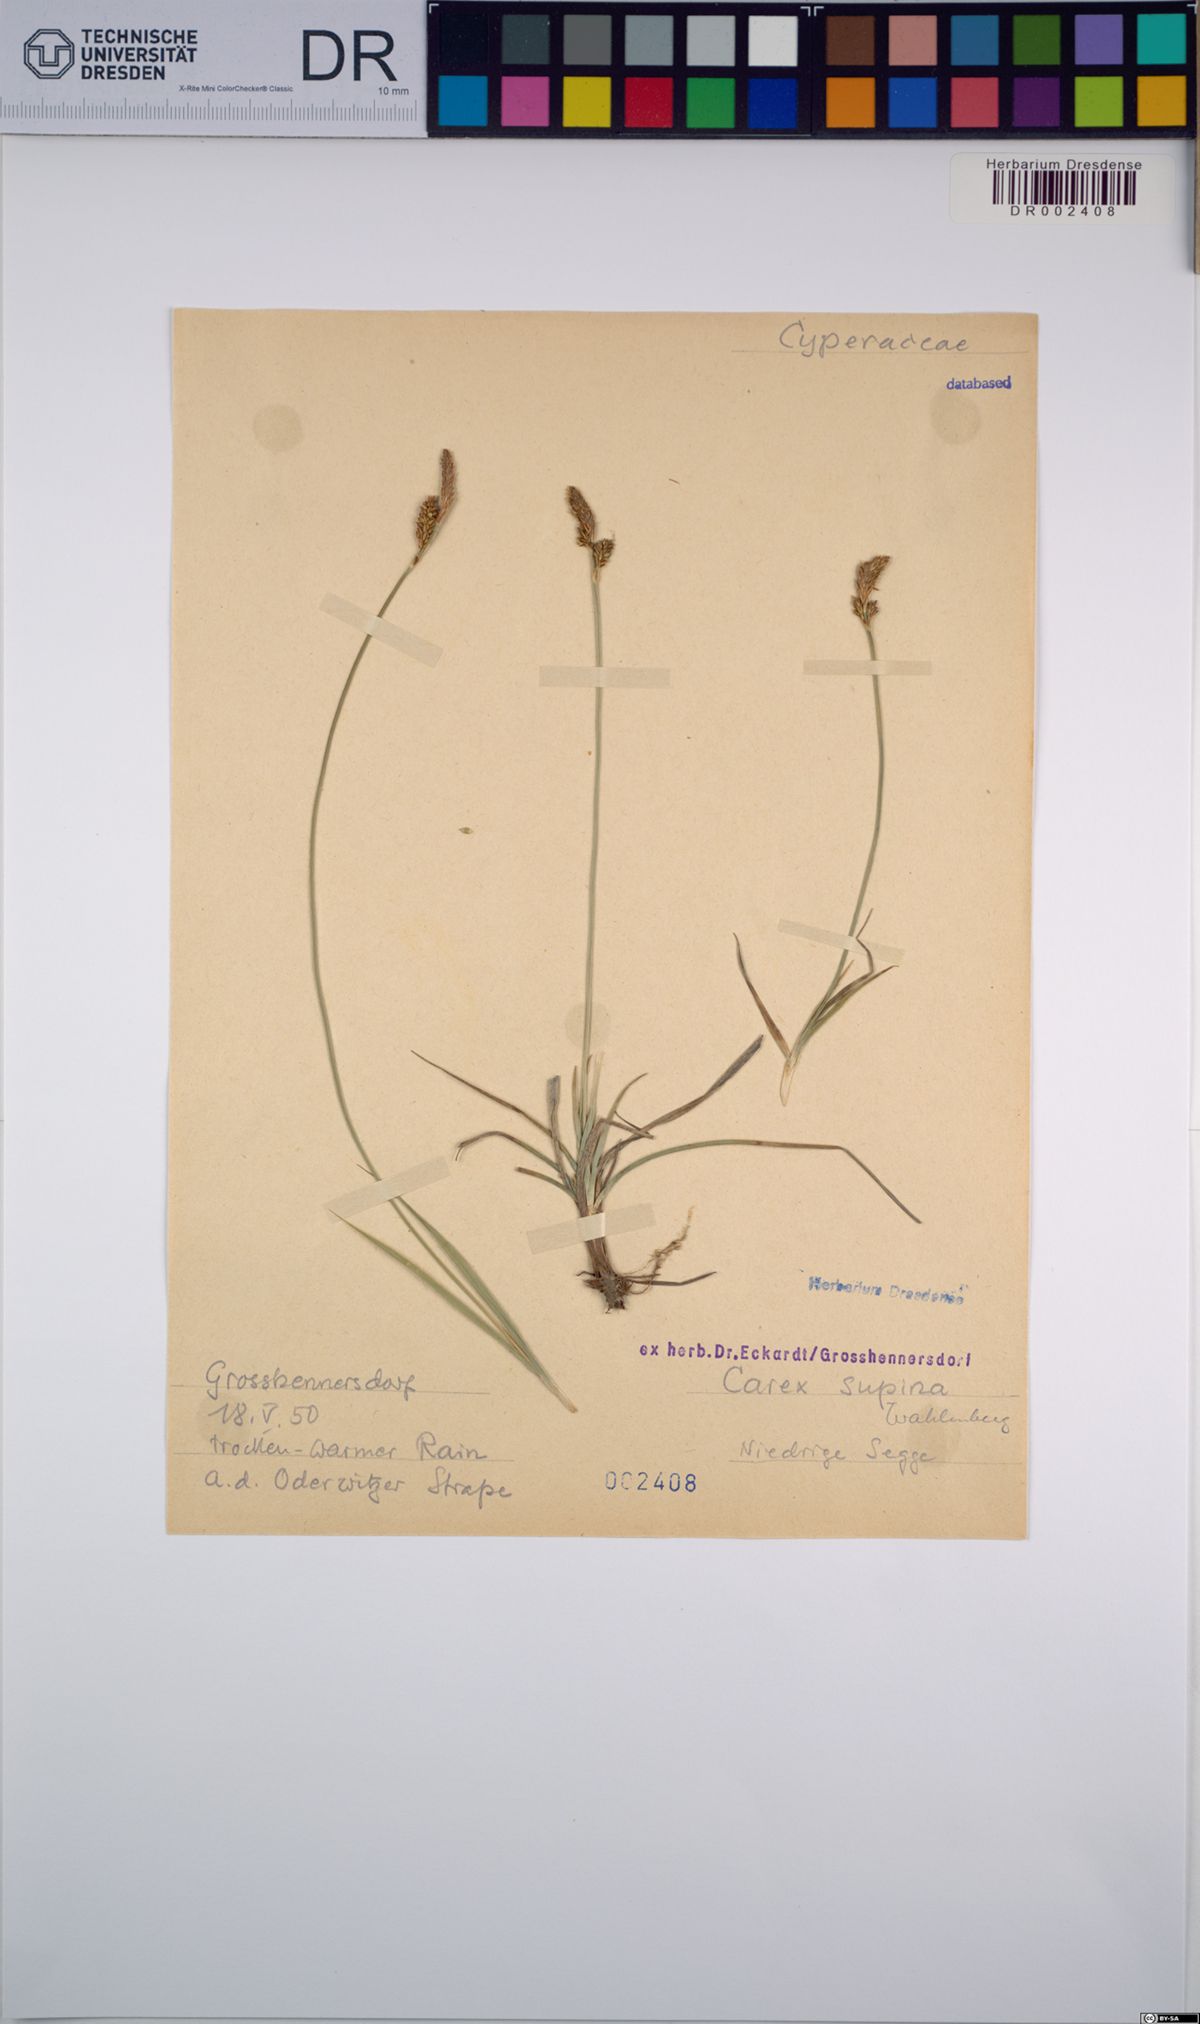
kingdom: Plantae
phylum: Tracheophyta
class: Liliopsida
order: Poales
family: Cyperaceae
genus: Carex
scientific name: Carex supina
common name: Lying-back sedge
